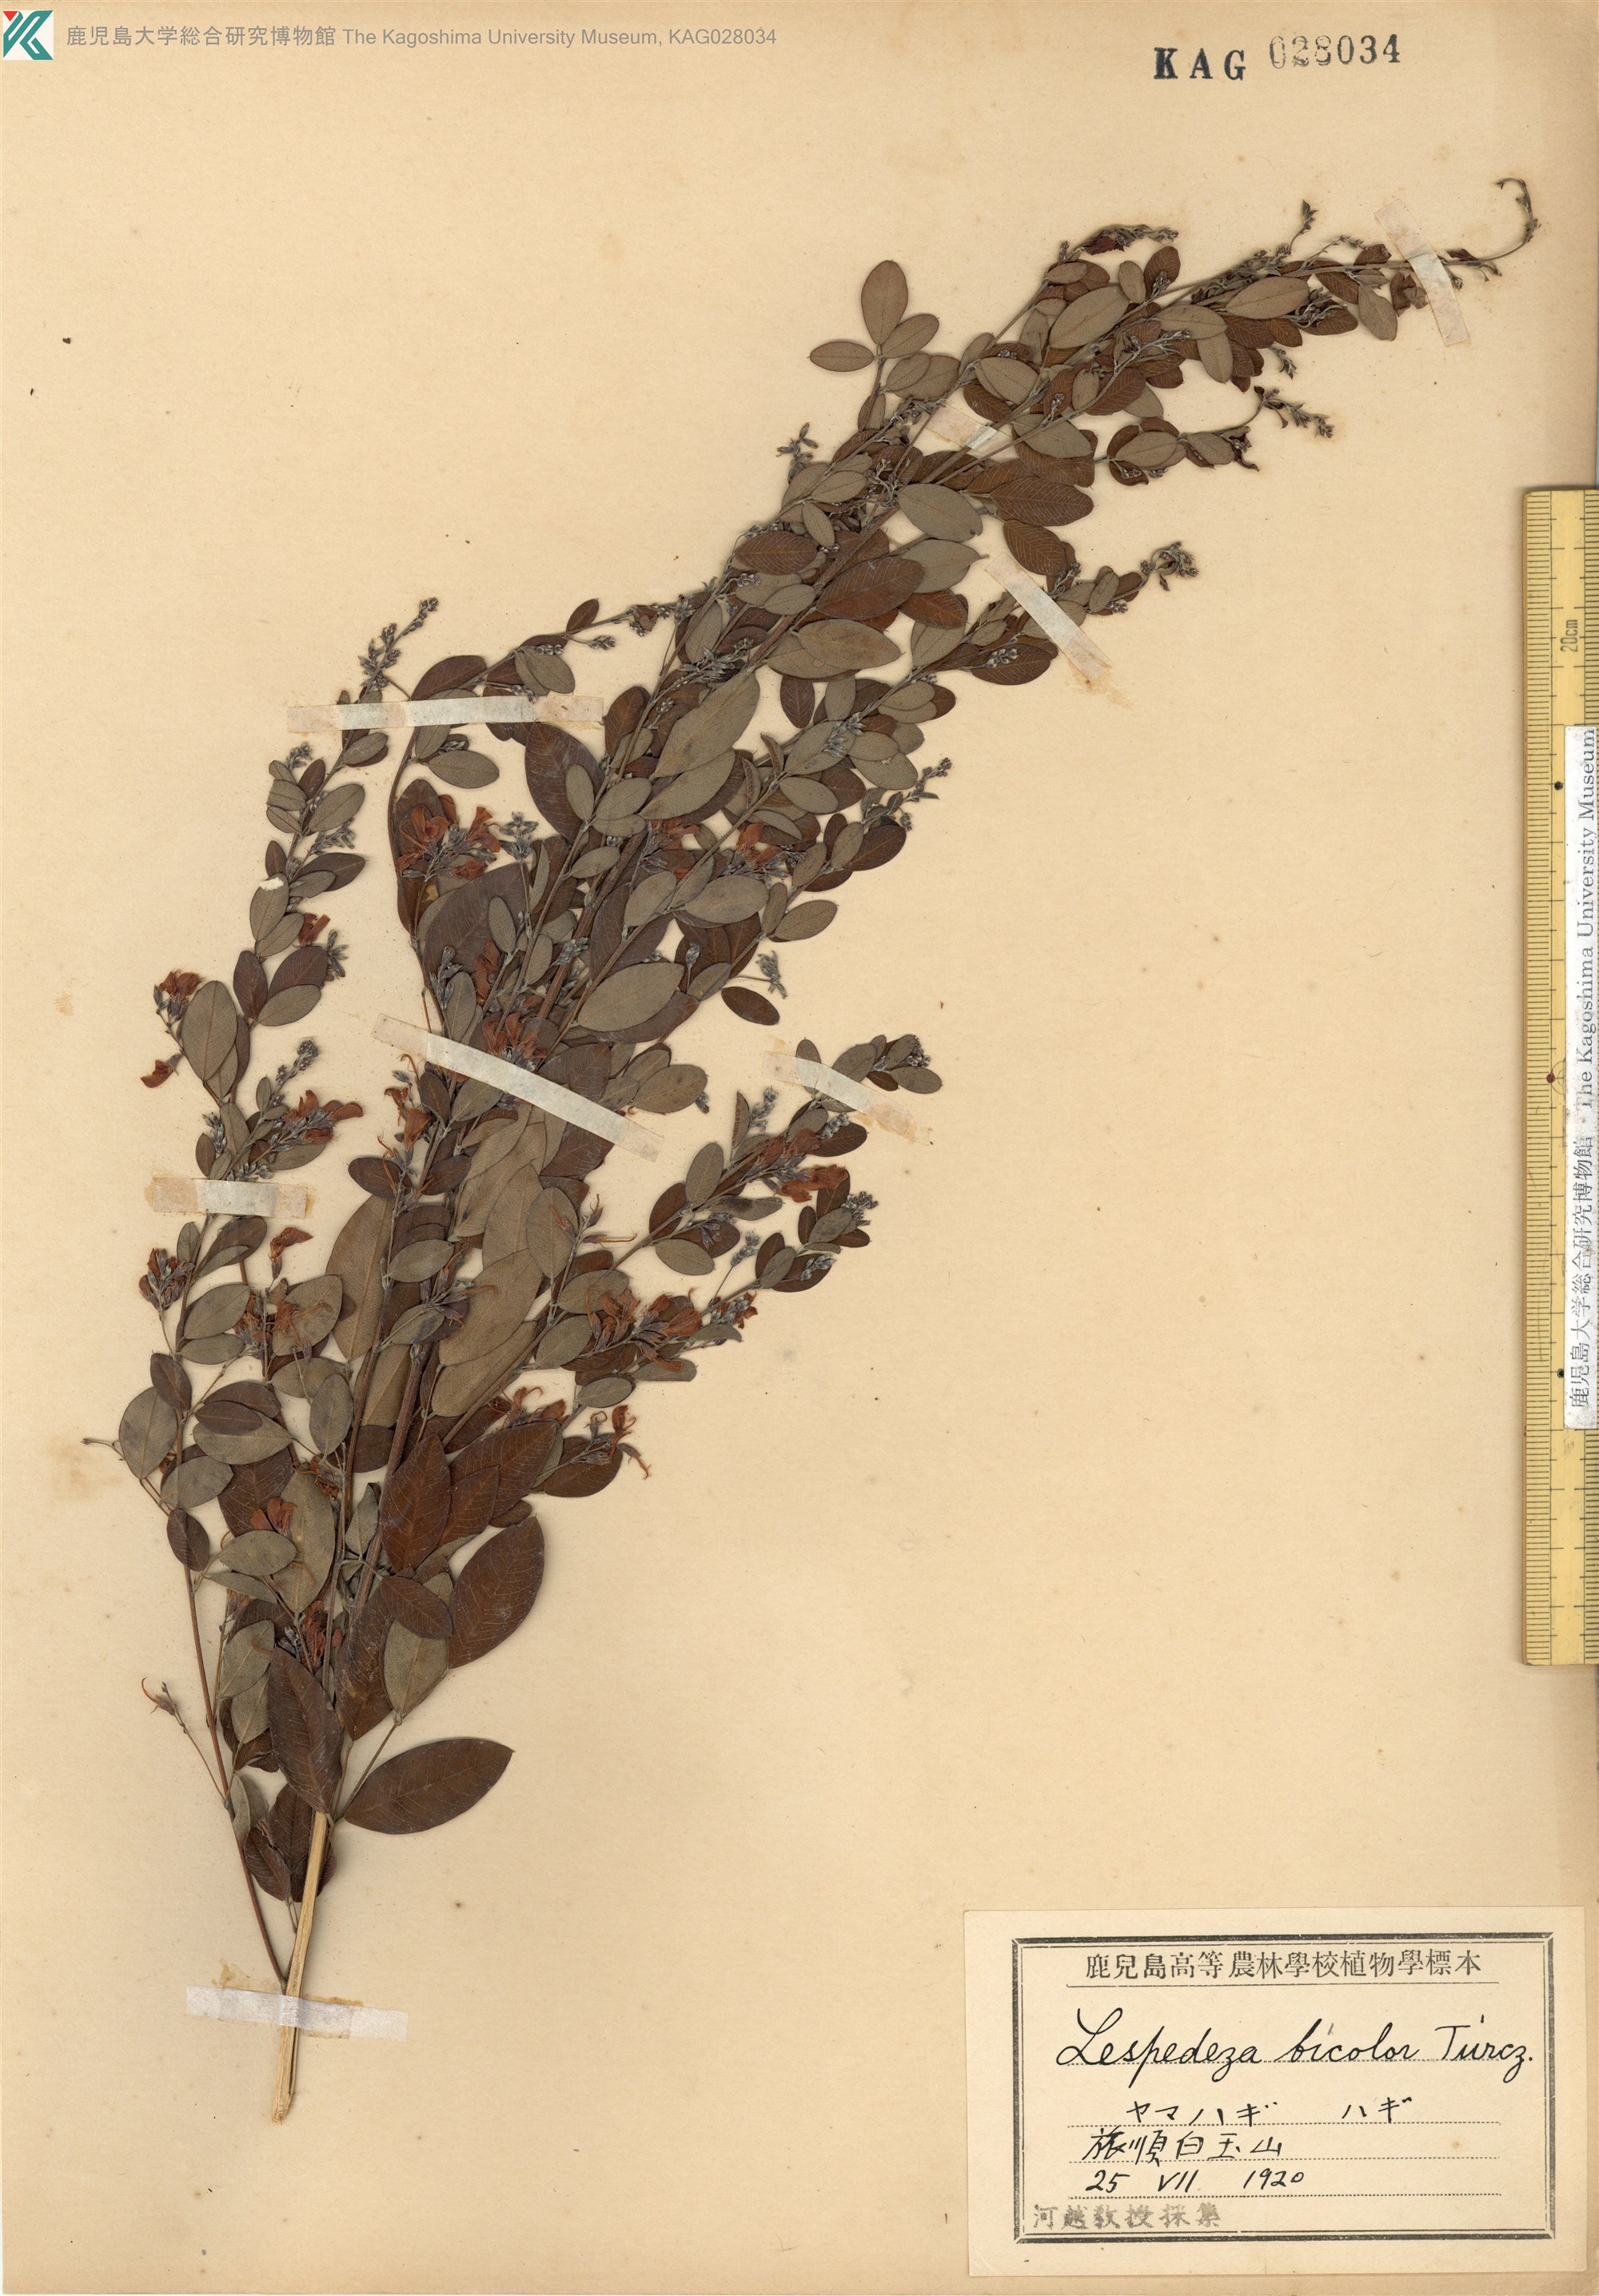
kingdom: Plantae
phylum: Tracheophyta
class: Magnoliopsida
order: Fabales
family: Fabaceae
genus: Lespedeza
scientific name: Lespedeza bicolor
